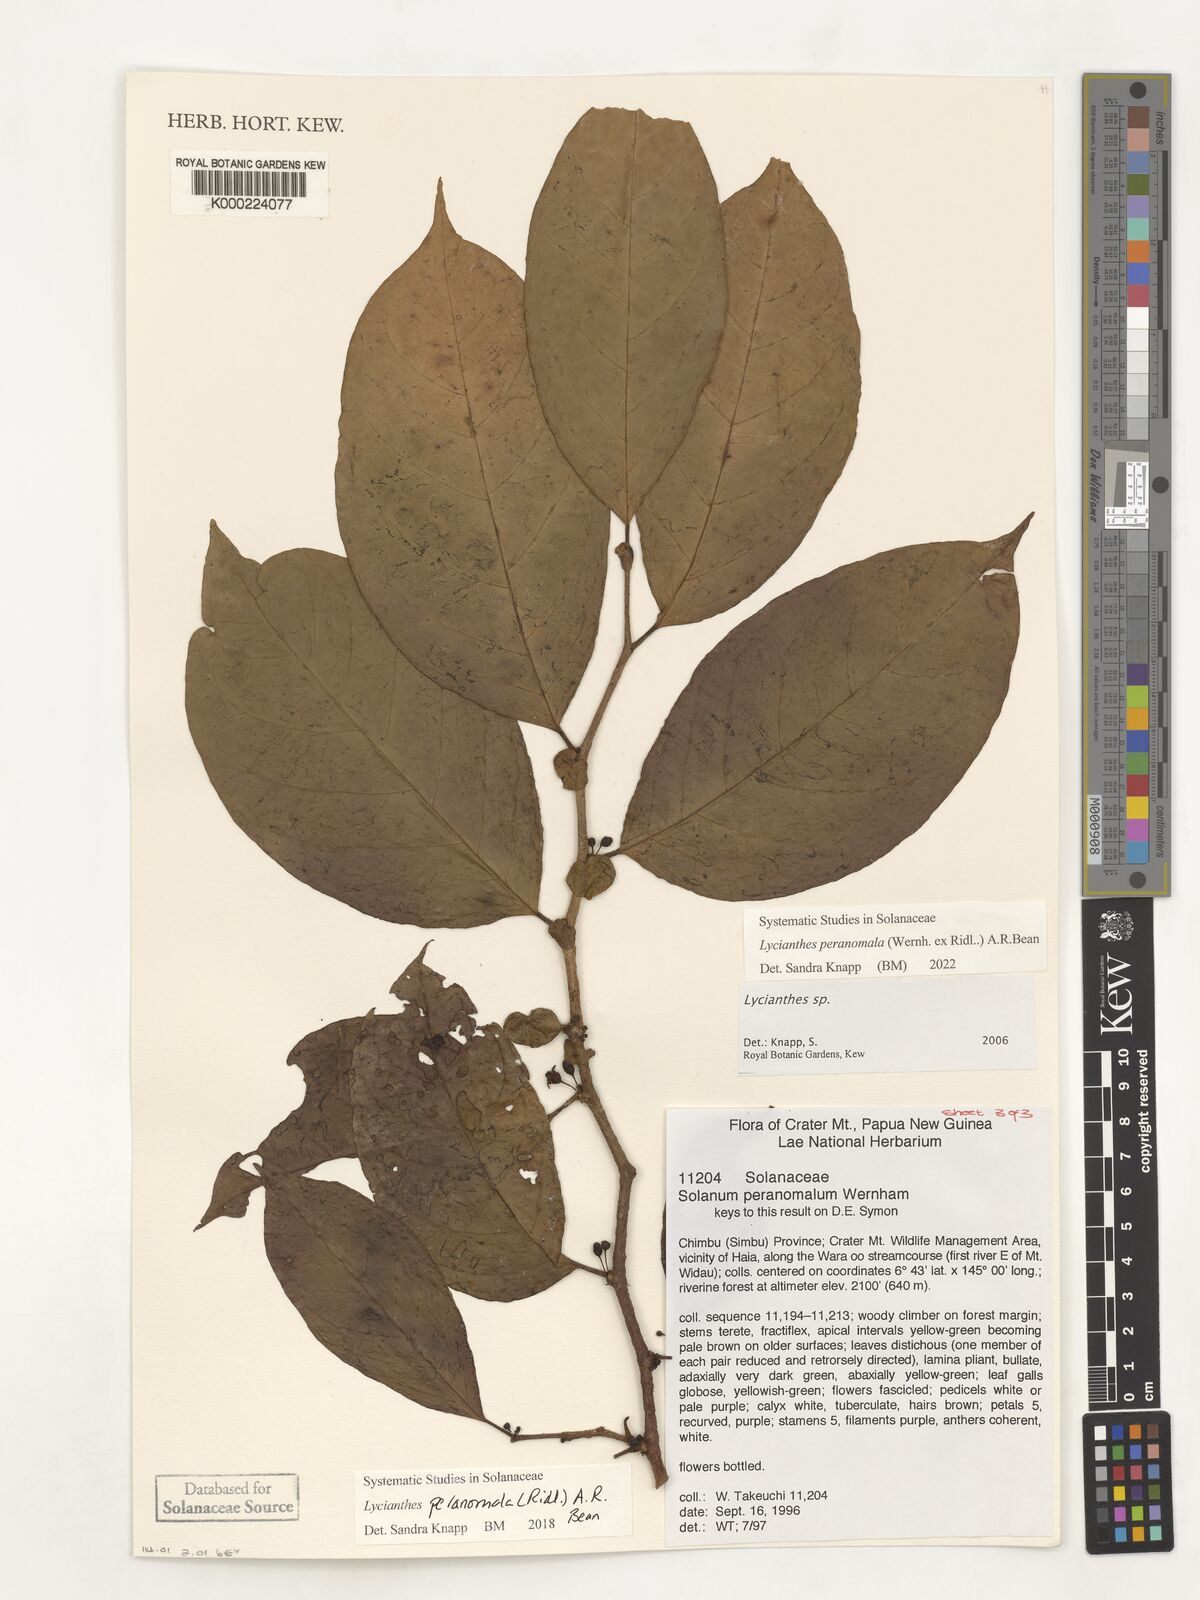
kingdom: Plantae
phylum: Tracheophyta
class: Magnoliopsida
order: Solanales
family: Solanaceae
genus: Lycianthes
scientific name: Lycianthes
